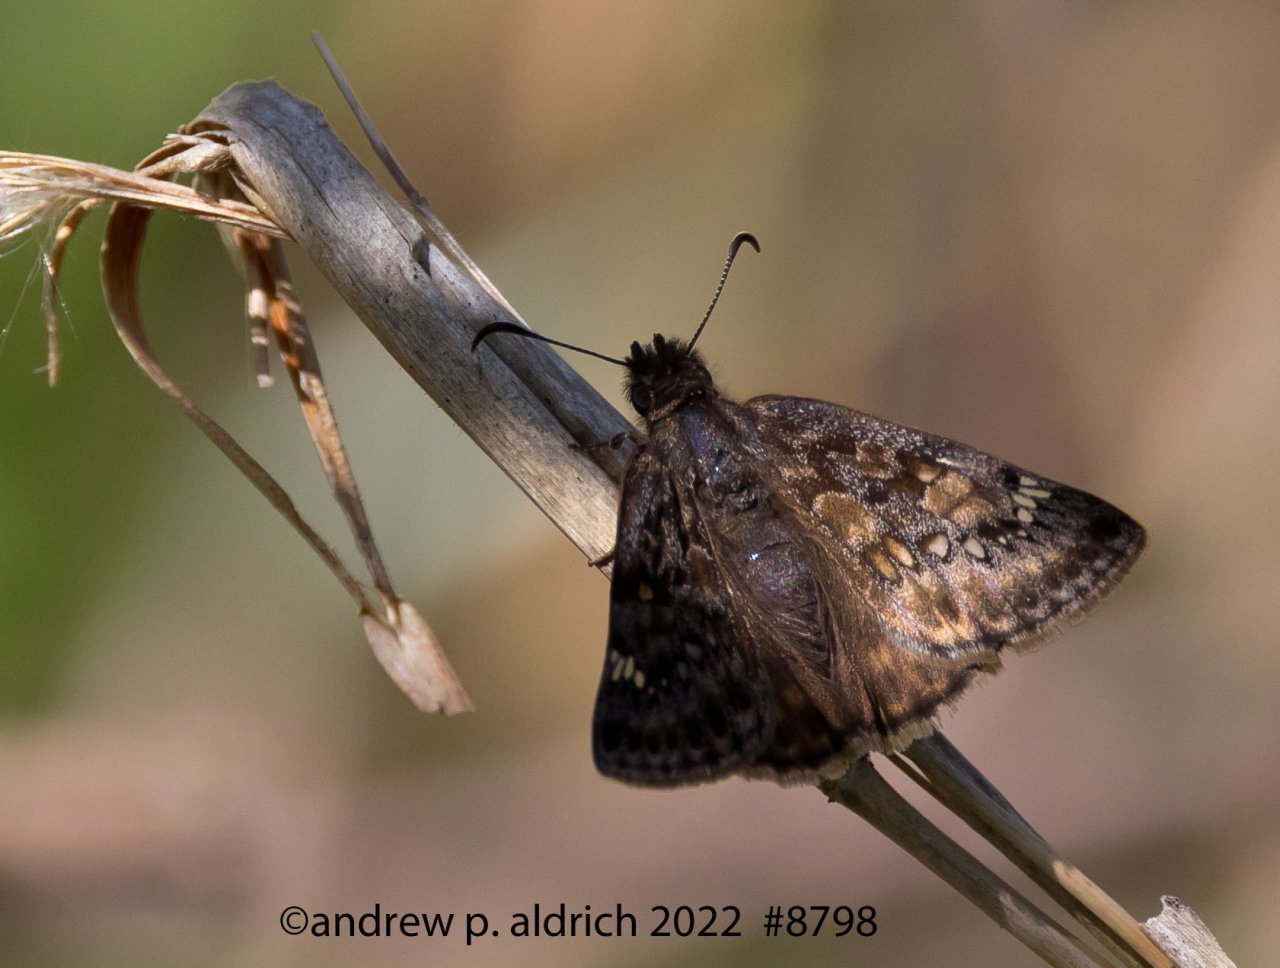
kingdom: Animalia
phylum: Arthropoda
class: Insecta
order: Lepidoptera
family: Hesperiidae
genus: Erynnis
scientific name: Erynnis
